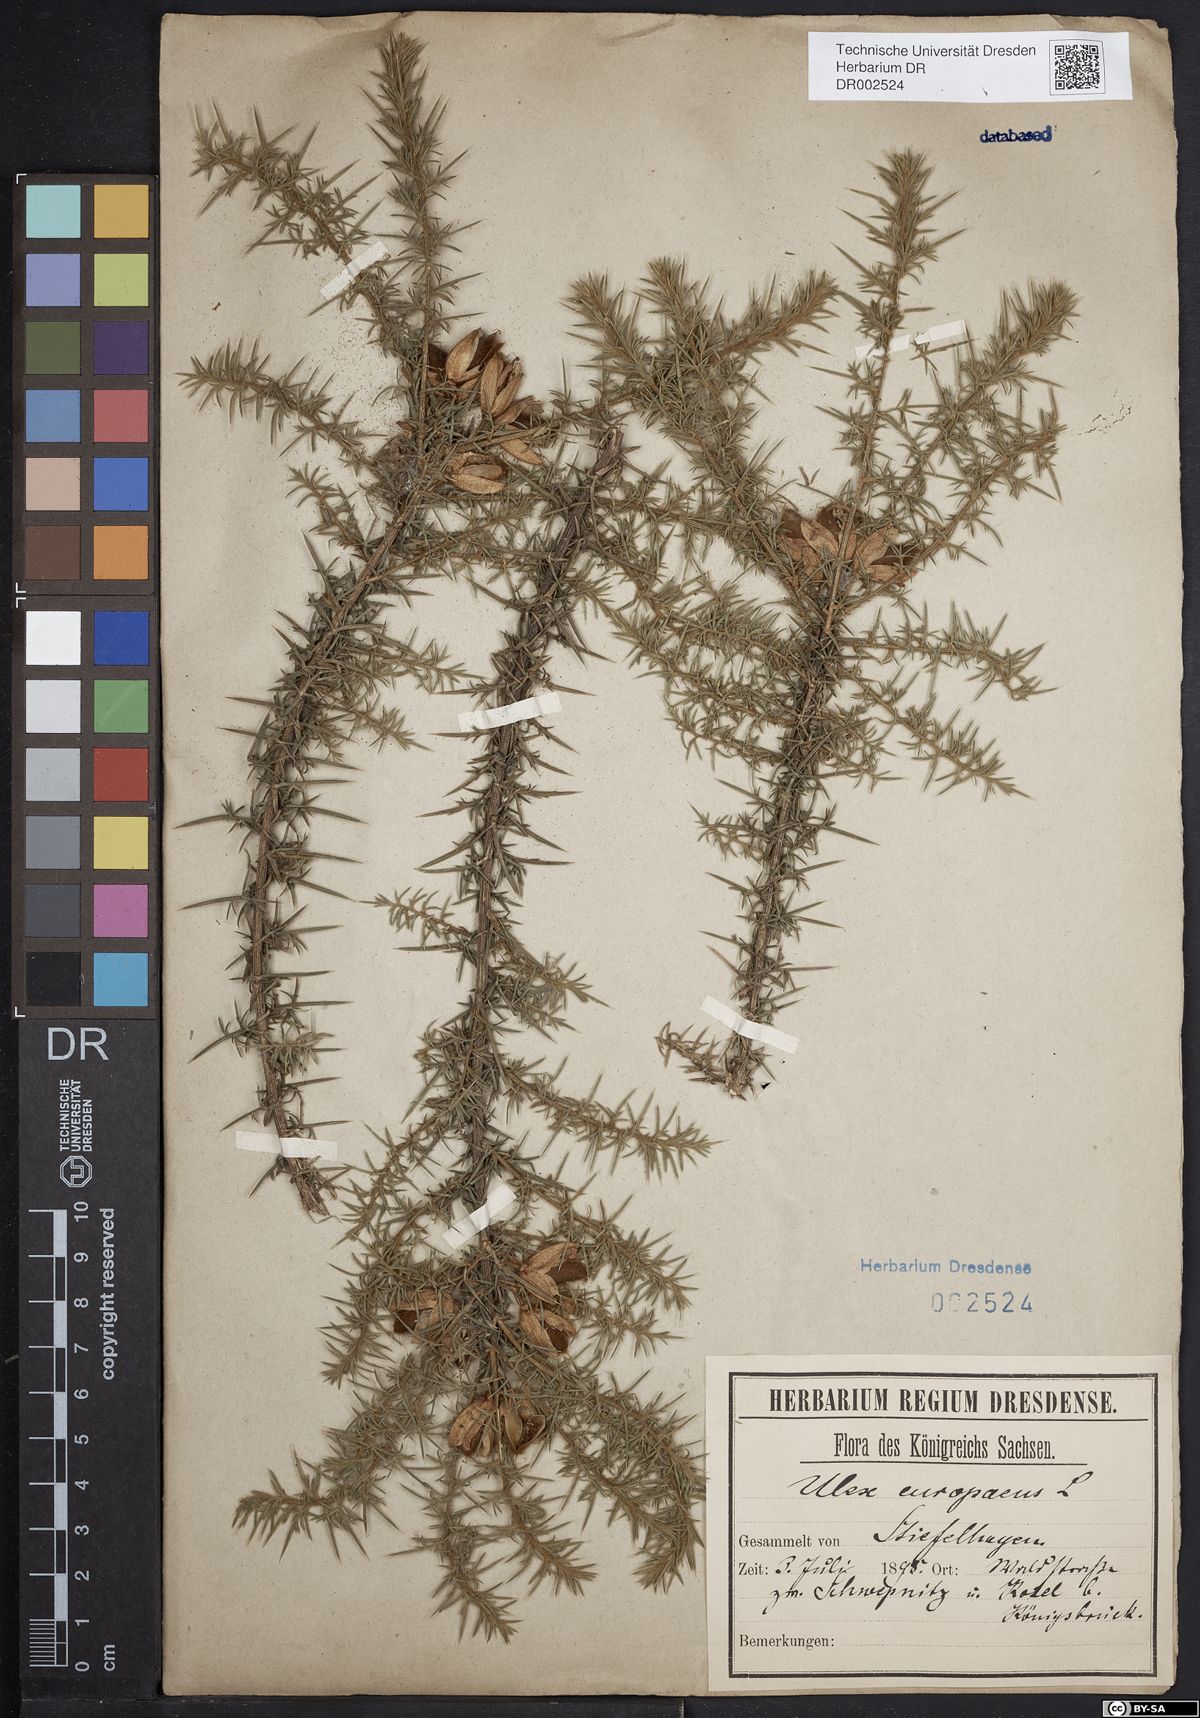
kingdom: Plantae
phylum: Tracheophyta
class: Magnoliopsida
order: Fabales
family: Fabaceae
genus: Ulex
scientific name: Ulex europaeus
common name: Common gorse
